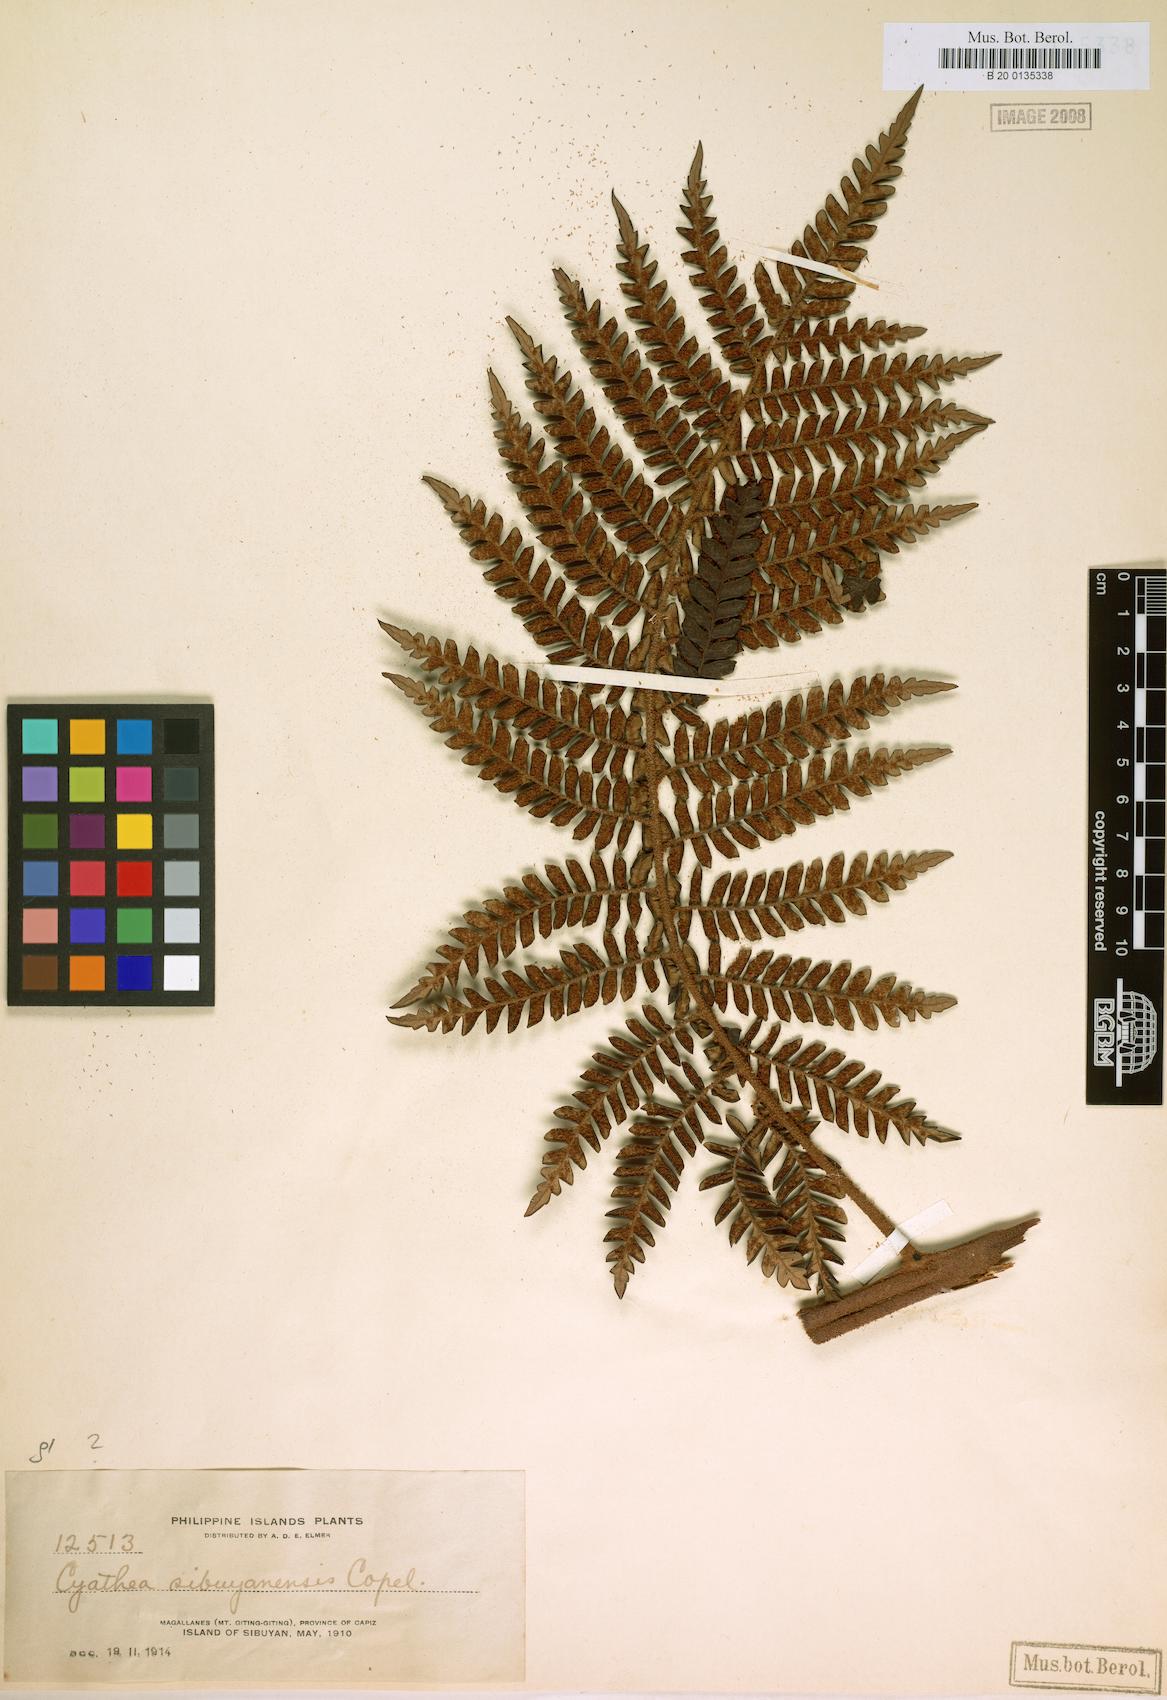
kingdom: Plantae
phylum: Tracheophyta
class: Polypodiopsida
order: Cyatheales
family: Cyatheaceae
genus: Sphaeropteris
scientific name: Sphaeropteris sibuyanensis
